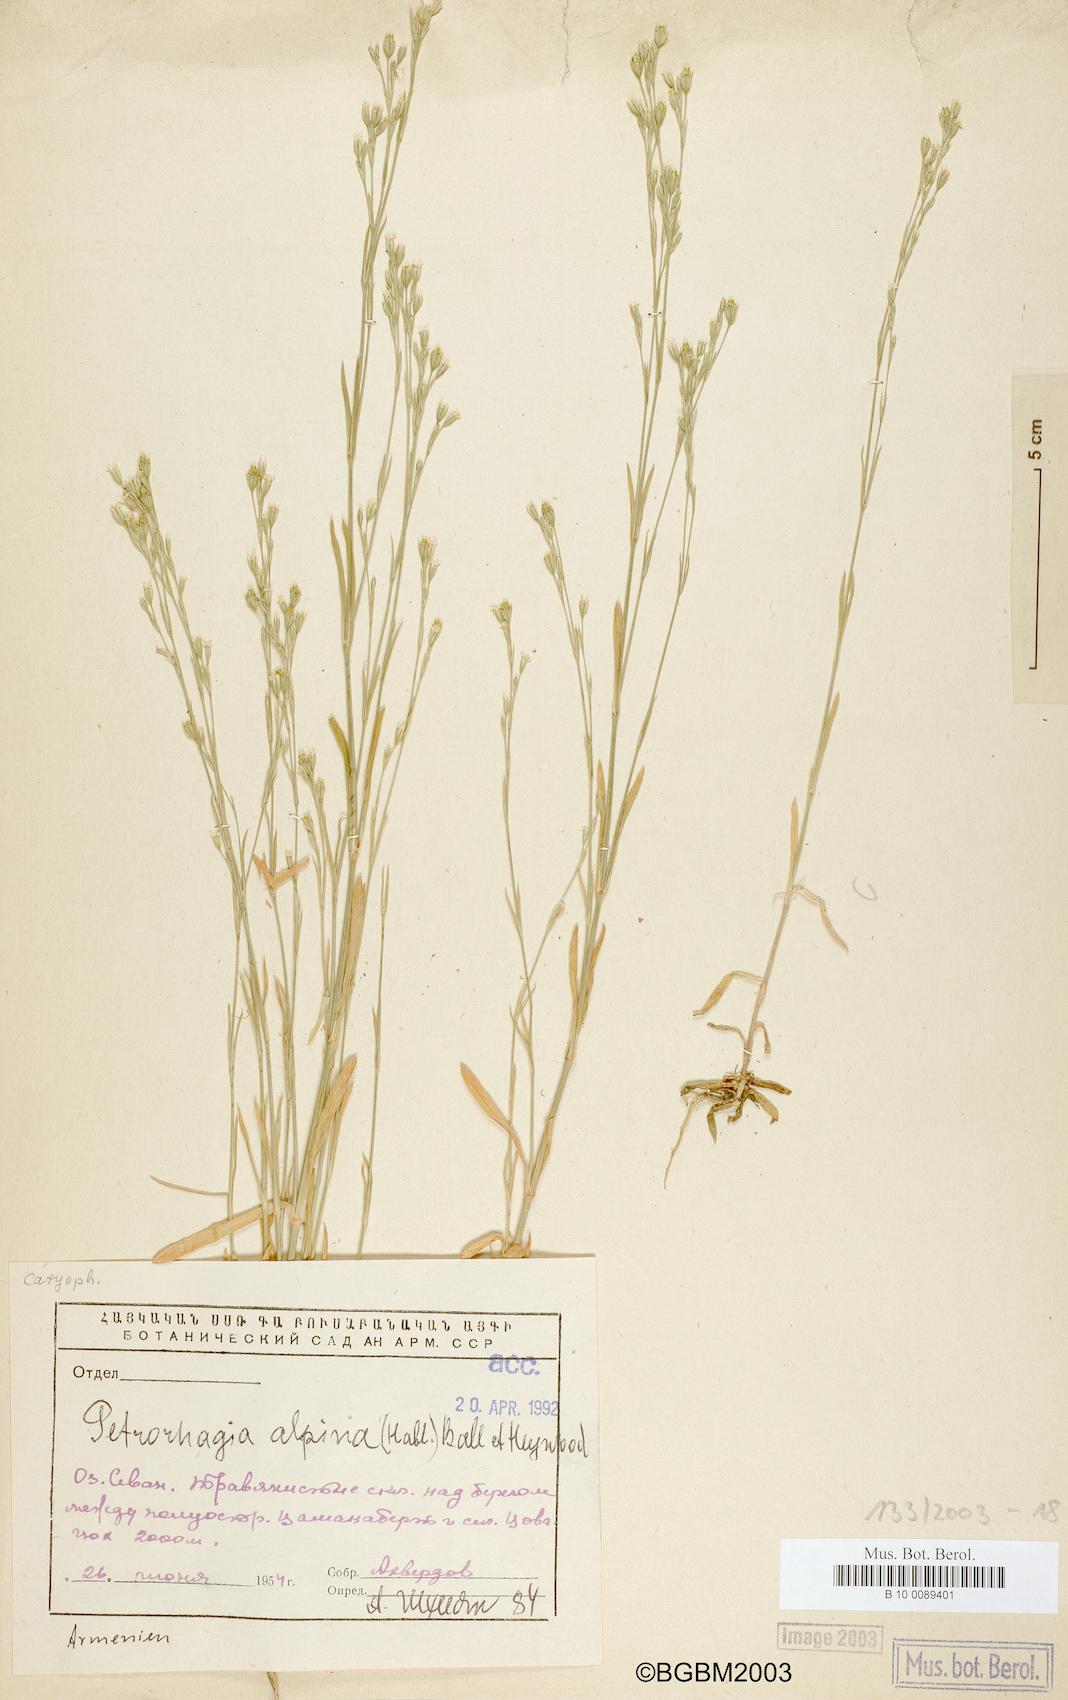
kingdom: Plantae
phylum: Tracheophyta
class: Magnoliopsida
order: Caryophyllales
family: Caryophyllaceae
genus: Petrorhagia
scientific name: Petrorhagia alpina
